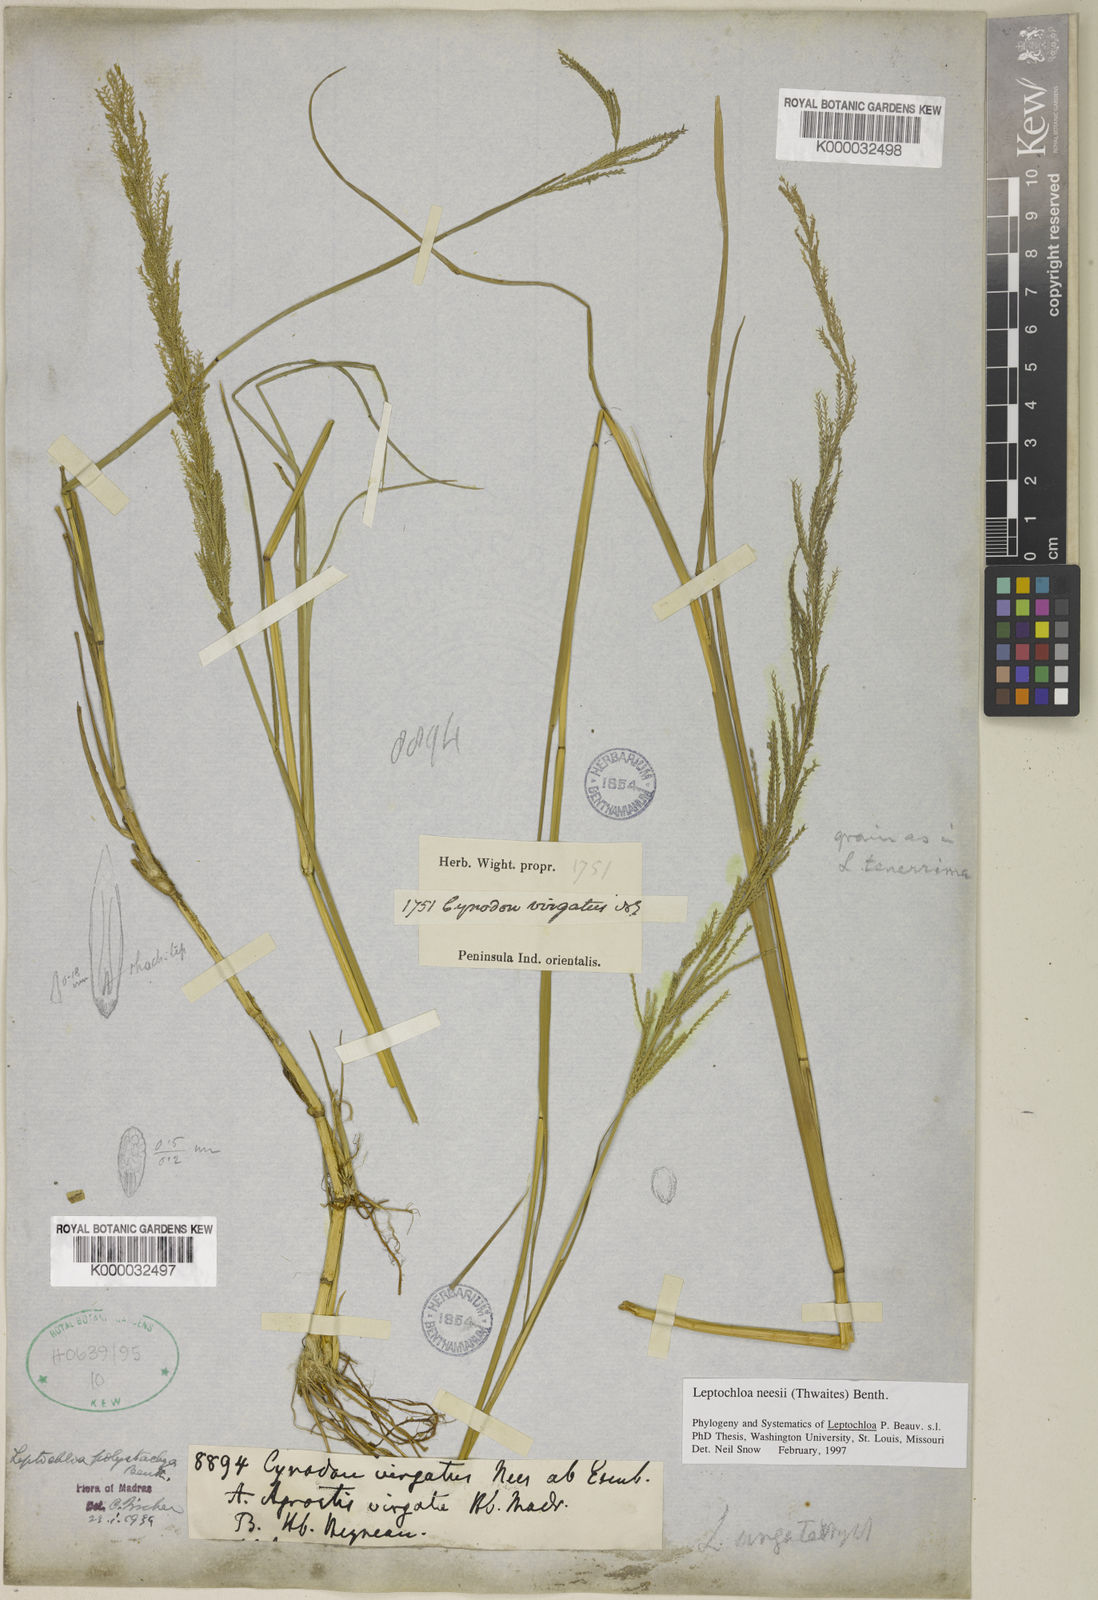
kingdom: Plantae
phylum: Tracheophyta
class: Liliopsida
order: Poales
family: Poaceae
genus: Dinebra
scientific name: Dinebra polystachyos
